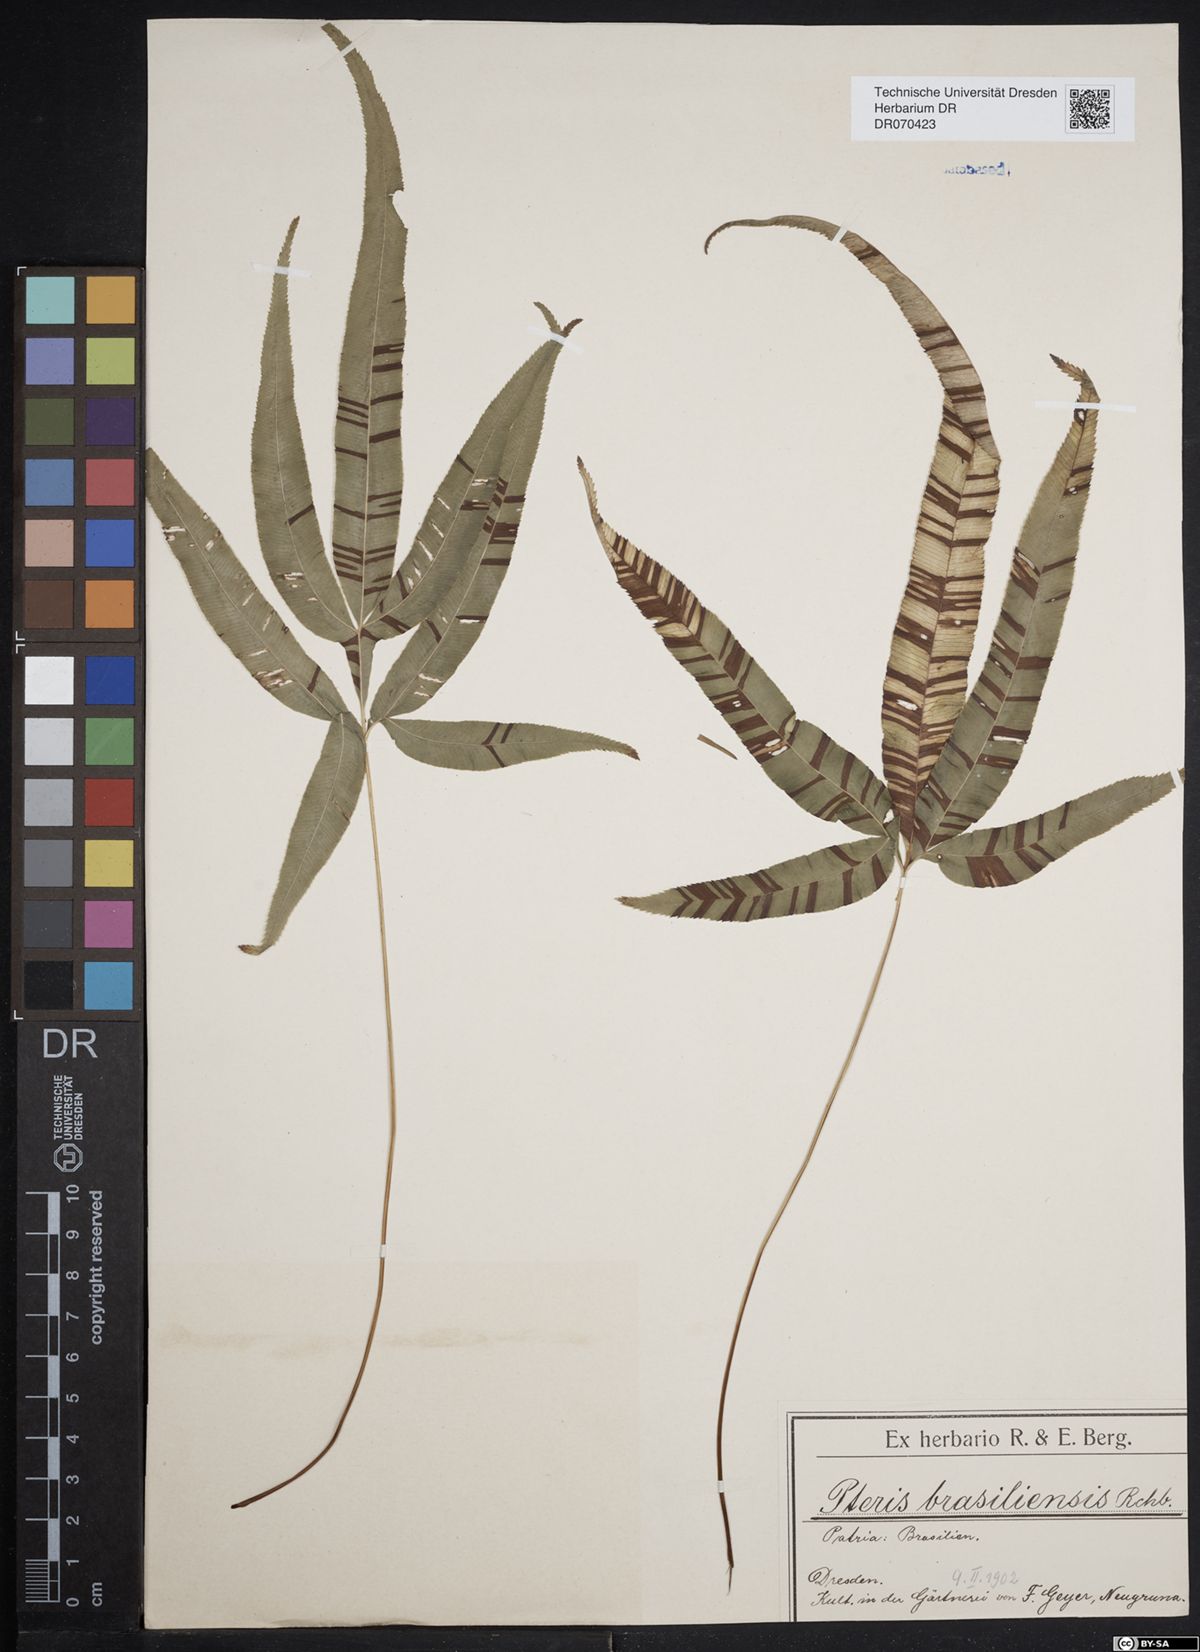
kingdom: Plantae
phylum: Tracheophyta
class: Polypodiopsida
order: Polypodiales
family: Pteridaceae
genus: Pteris
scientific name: Pteris brasiliensis
